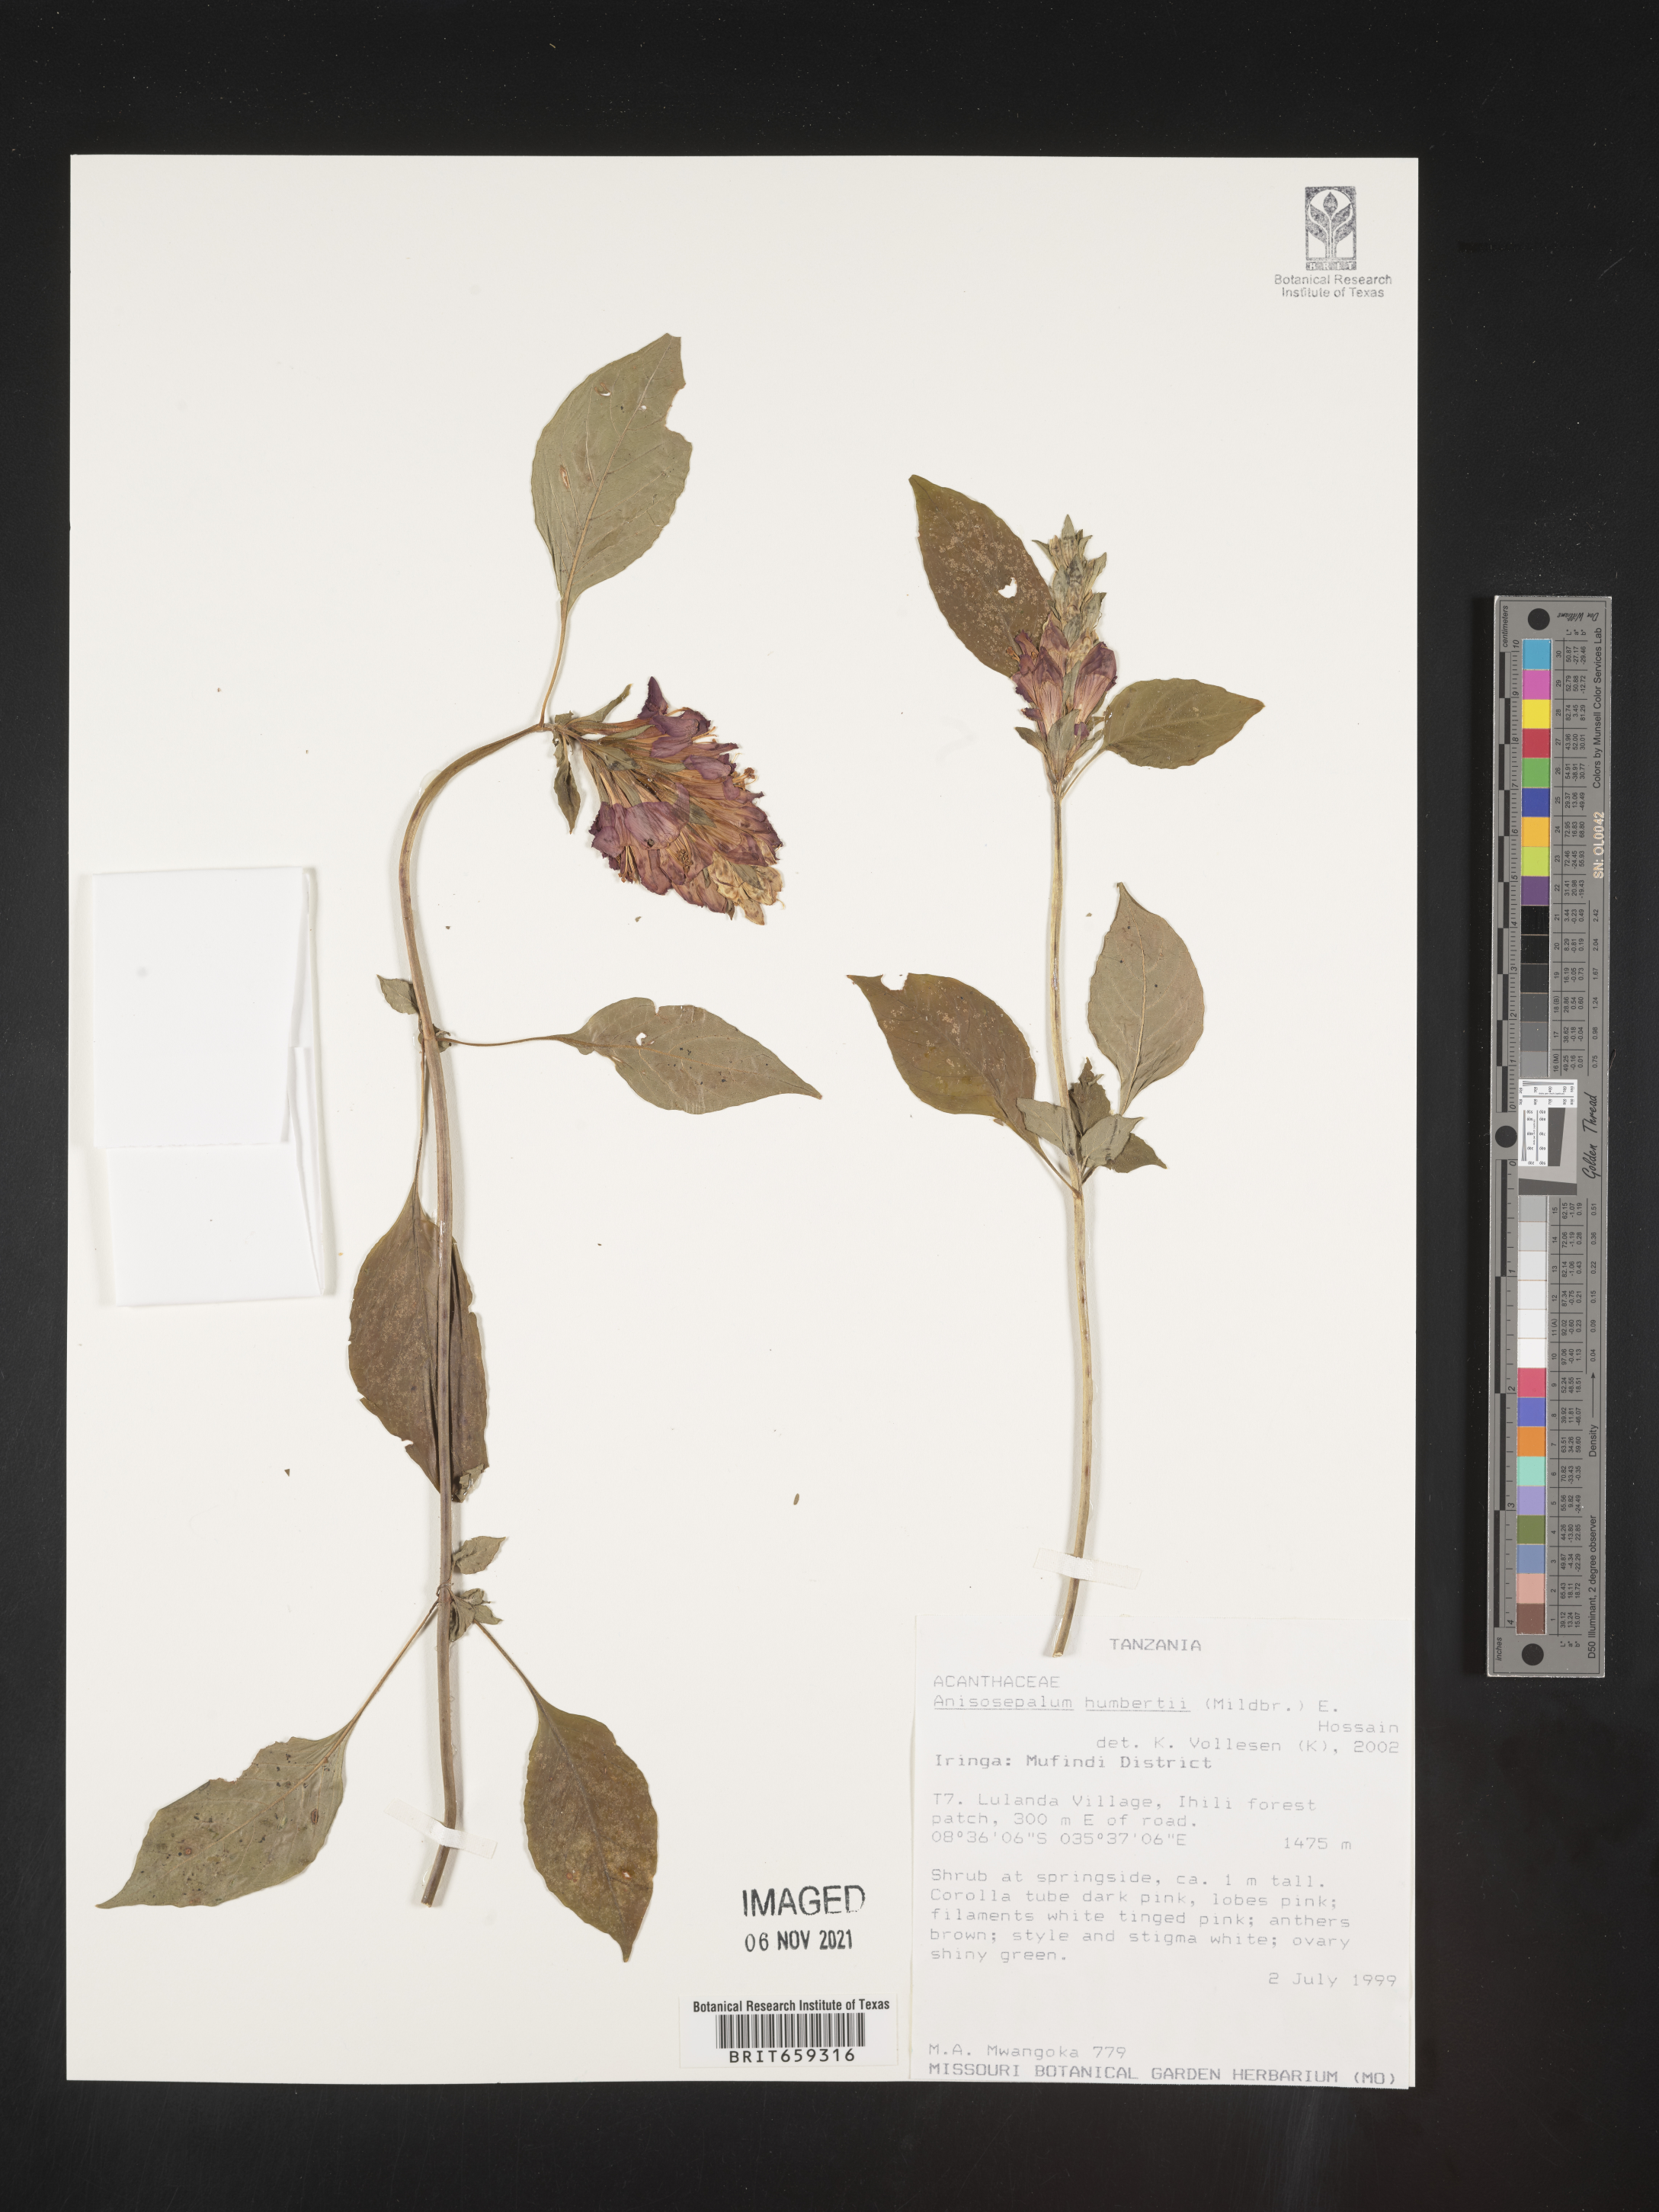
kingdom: Plantae
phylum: Tracheophyta
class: Magnoliopsida
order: Lamiales
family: Acanthaceae
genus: Anisosepalum
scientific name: Anisosepalum humbertii
